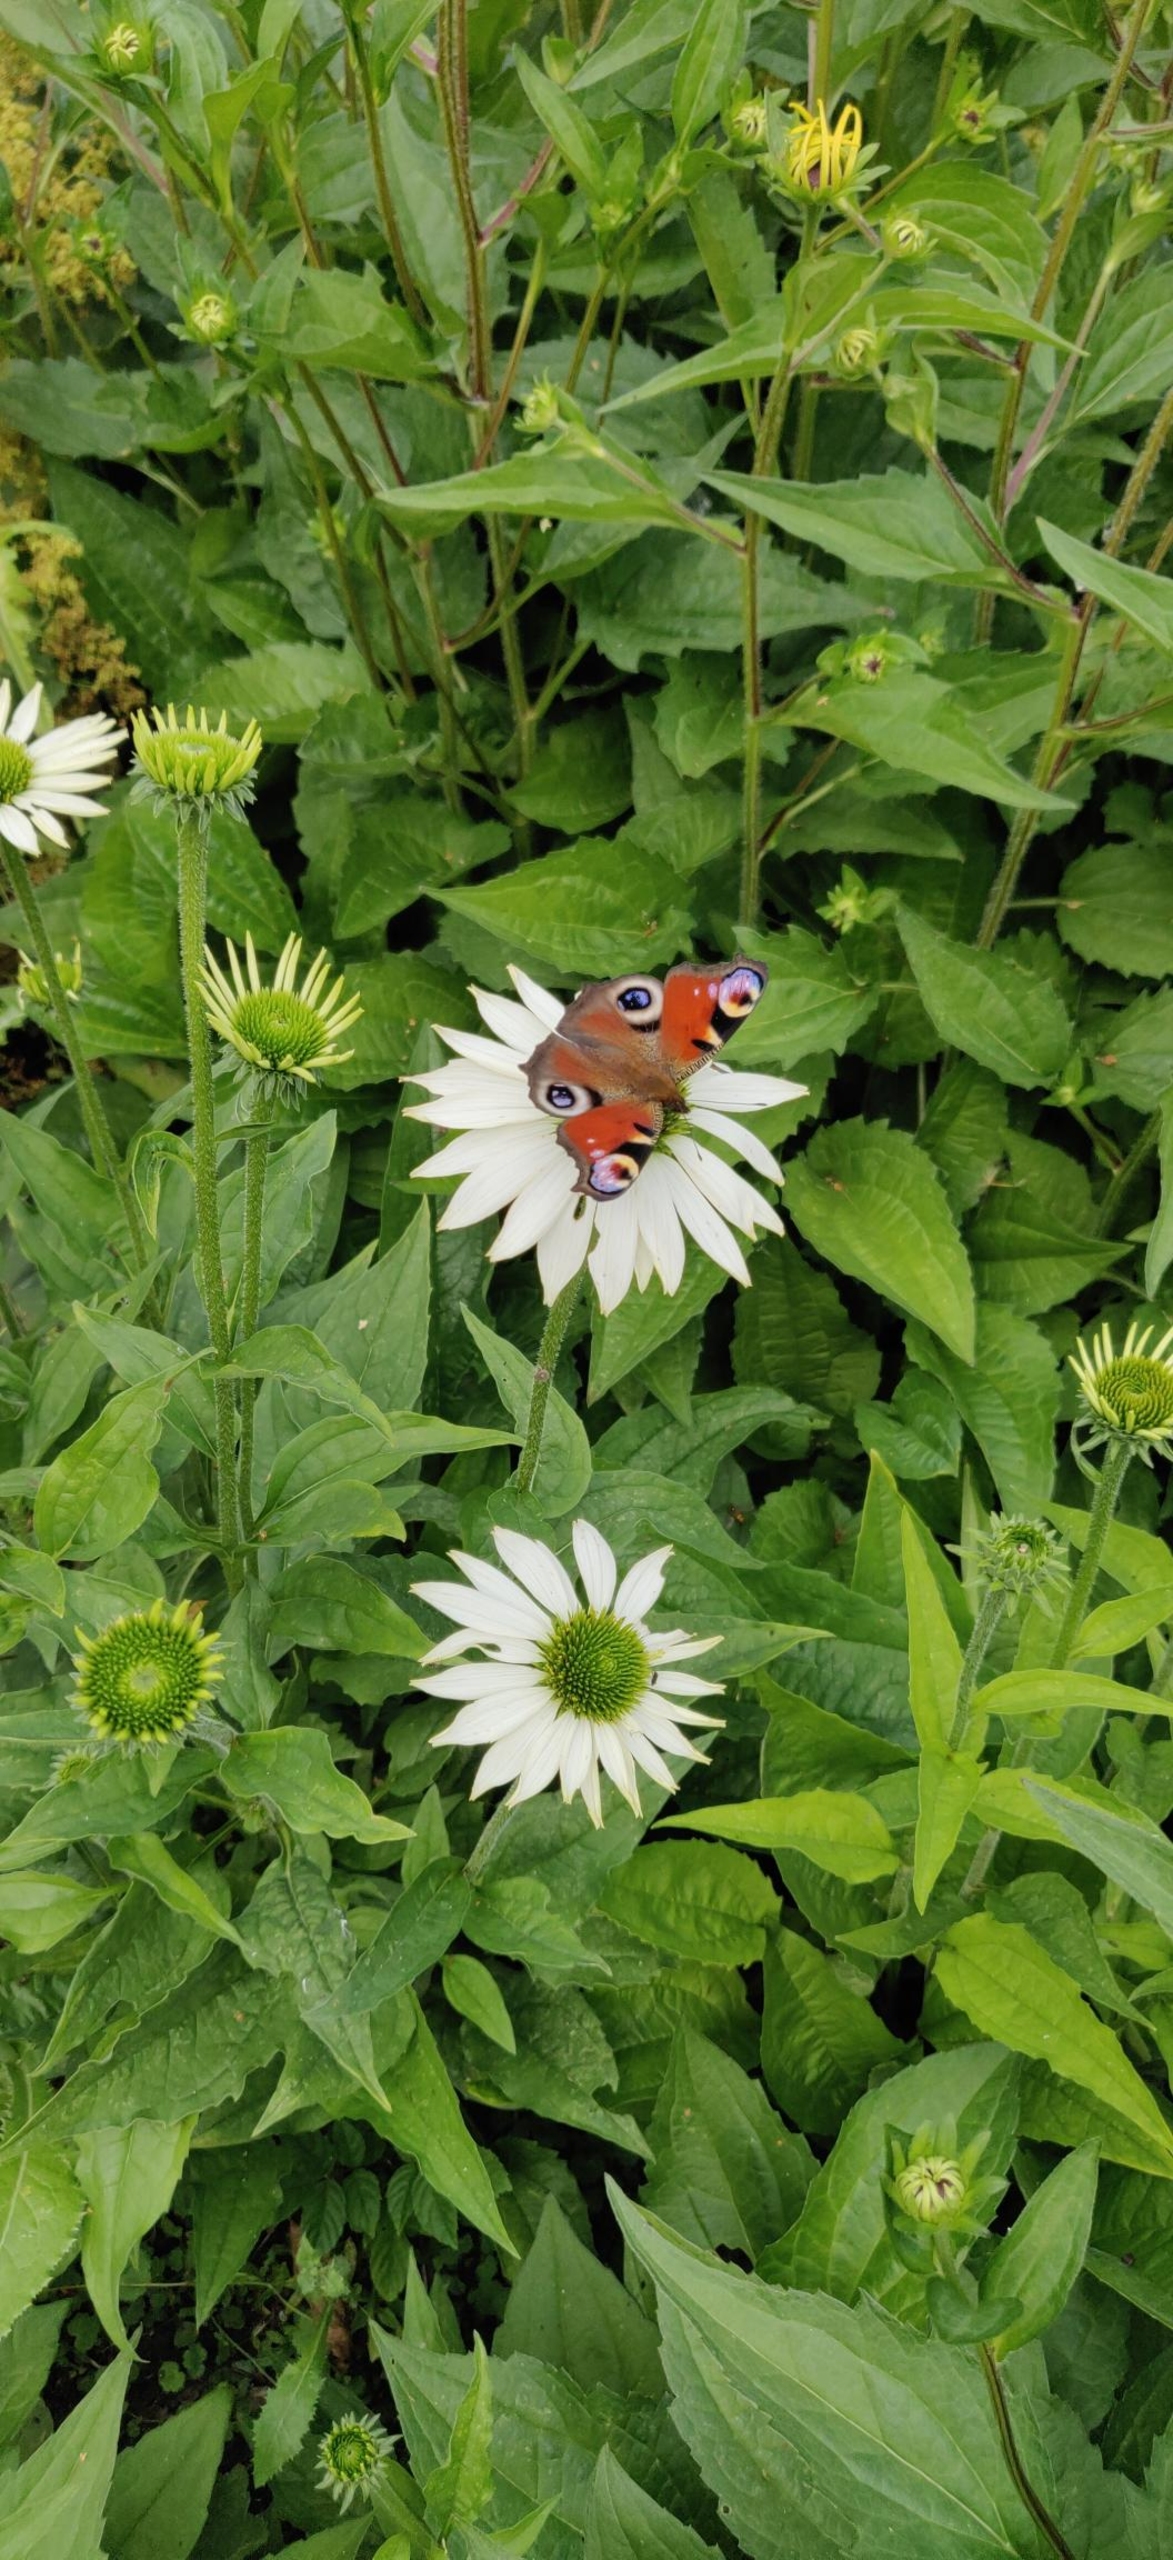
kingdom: Animalia
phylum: Arthropoda
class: Insecta
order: Lepidoptera
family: Nymphalidae
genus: Aglais
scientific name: Aglais io
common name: Dagpåfugleøje
